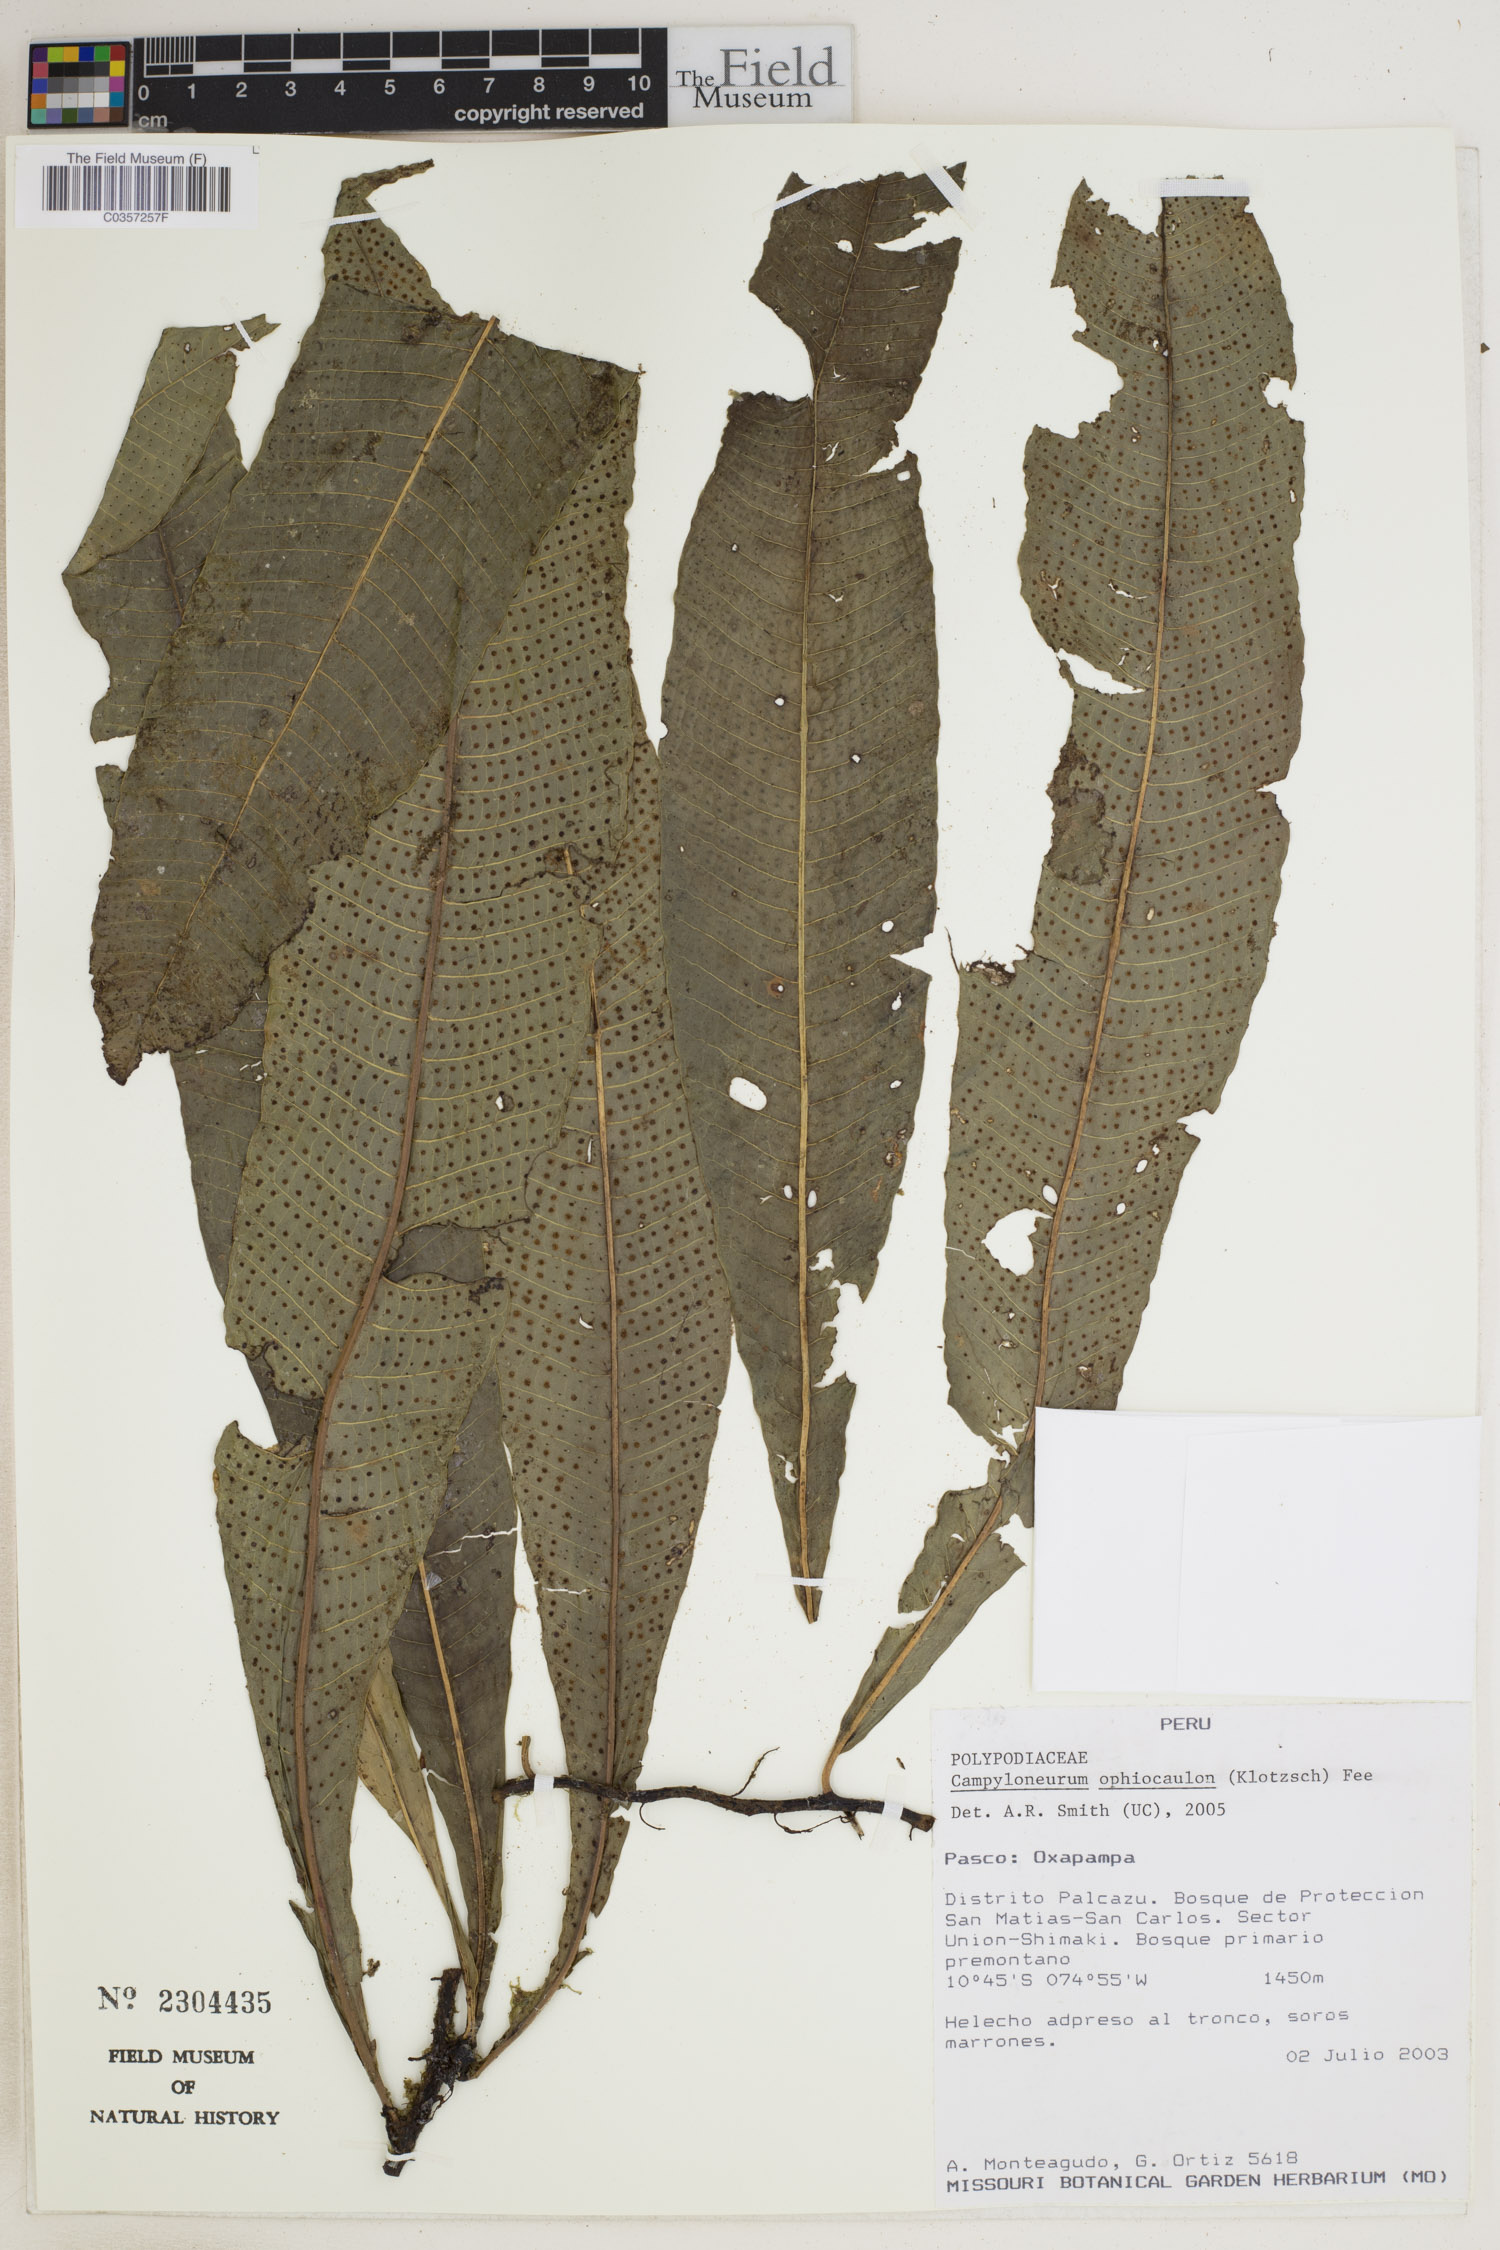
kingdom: Plantae
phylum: Tracheophyta
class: Polypodiopsida
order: Polypodiales
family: Polypodiaceae
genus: Campyloneurum
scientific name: Campyloneurum ophiocaulon
